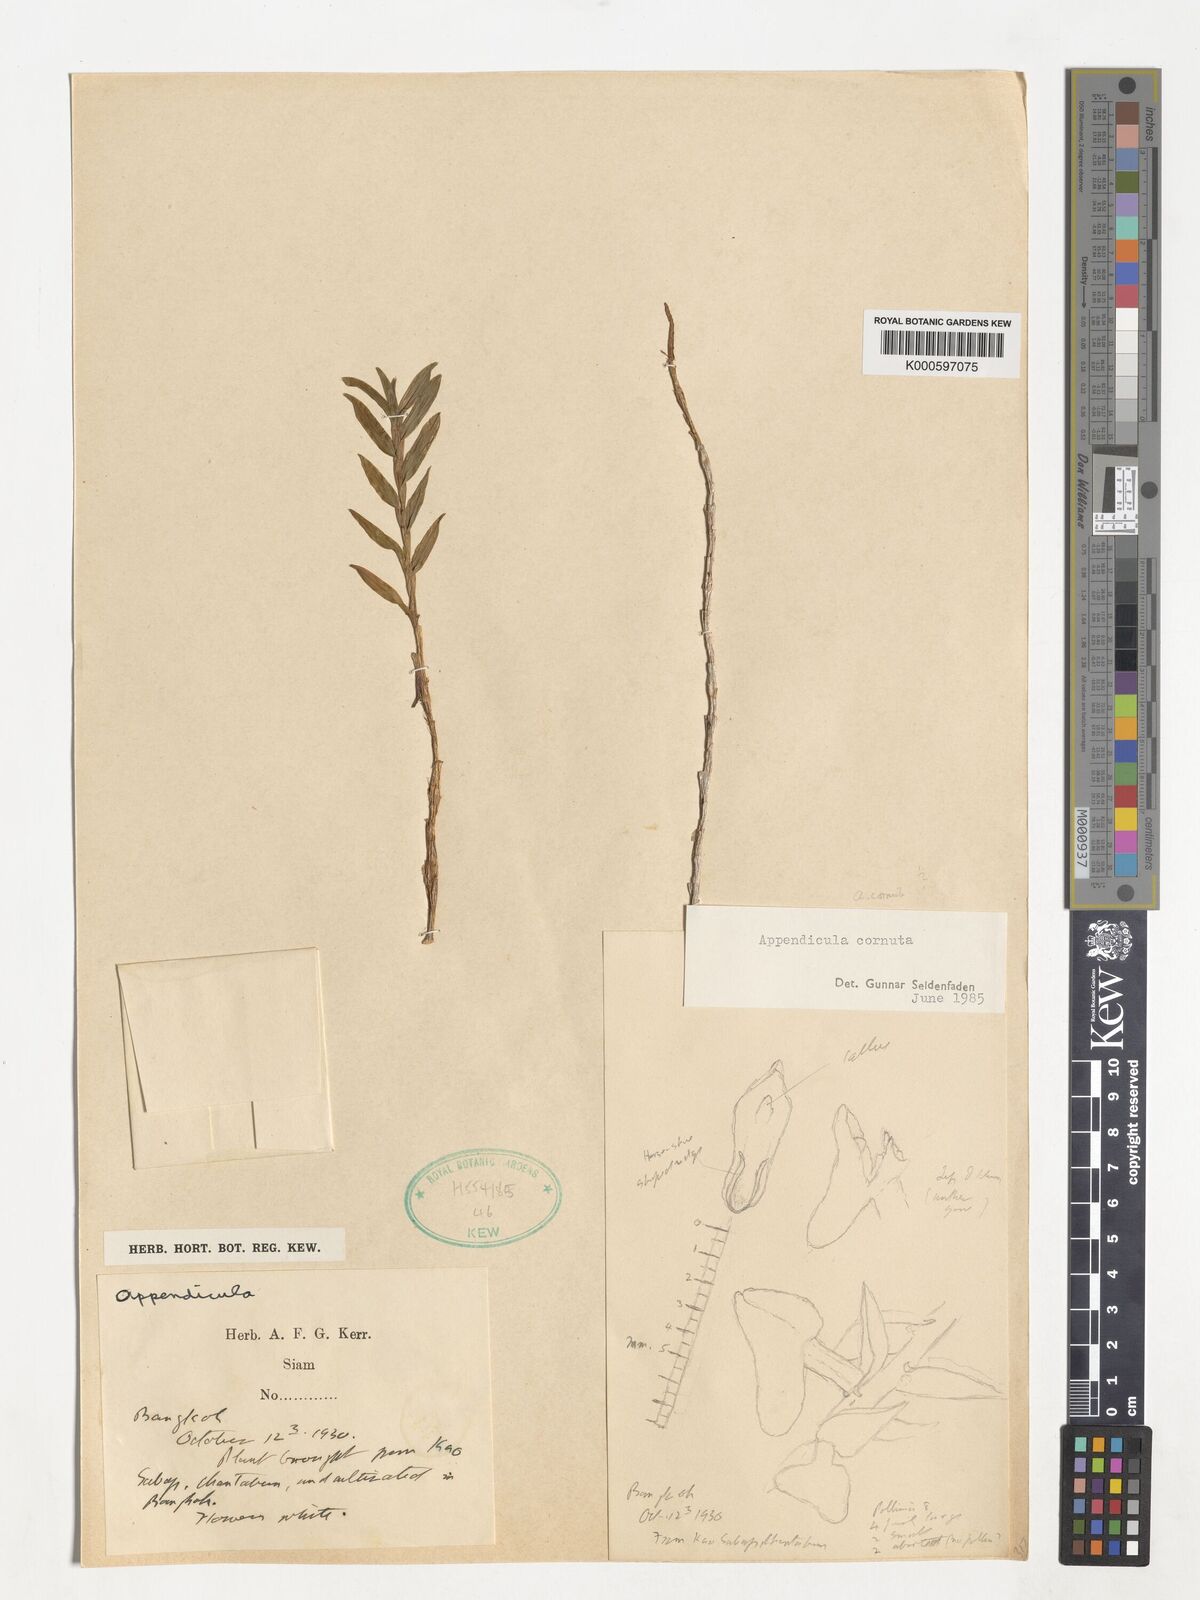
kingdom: Plantae
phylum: Tracheophyta
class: Liliopsida
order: Asparagales
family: Orchidaceae
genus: Appendicula
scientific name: Appendicula cornuta
